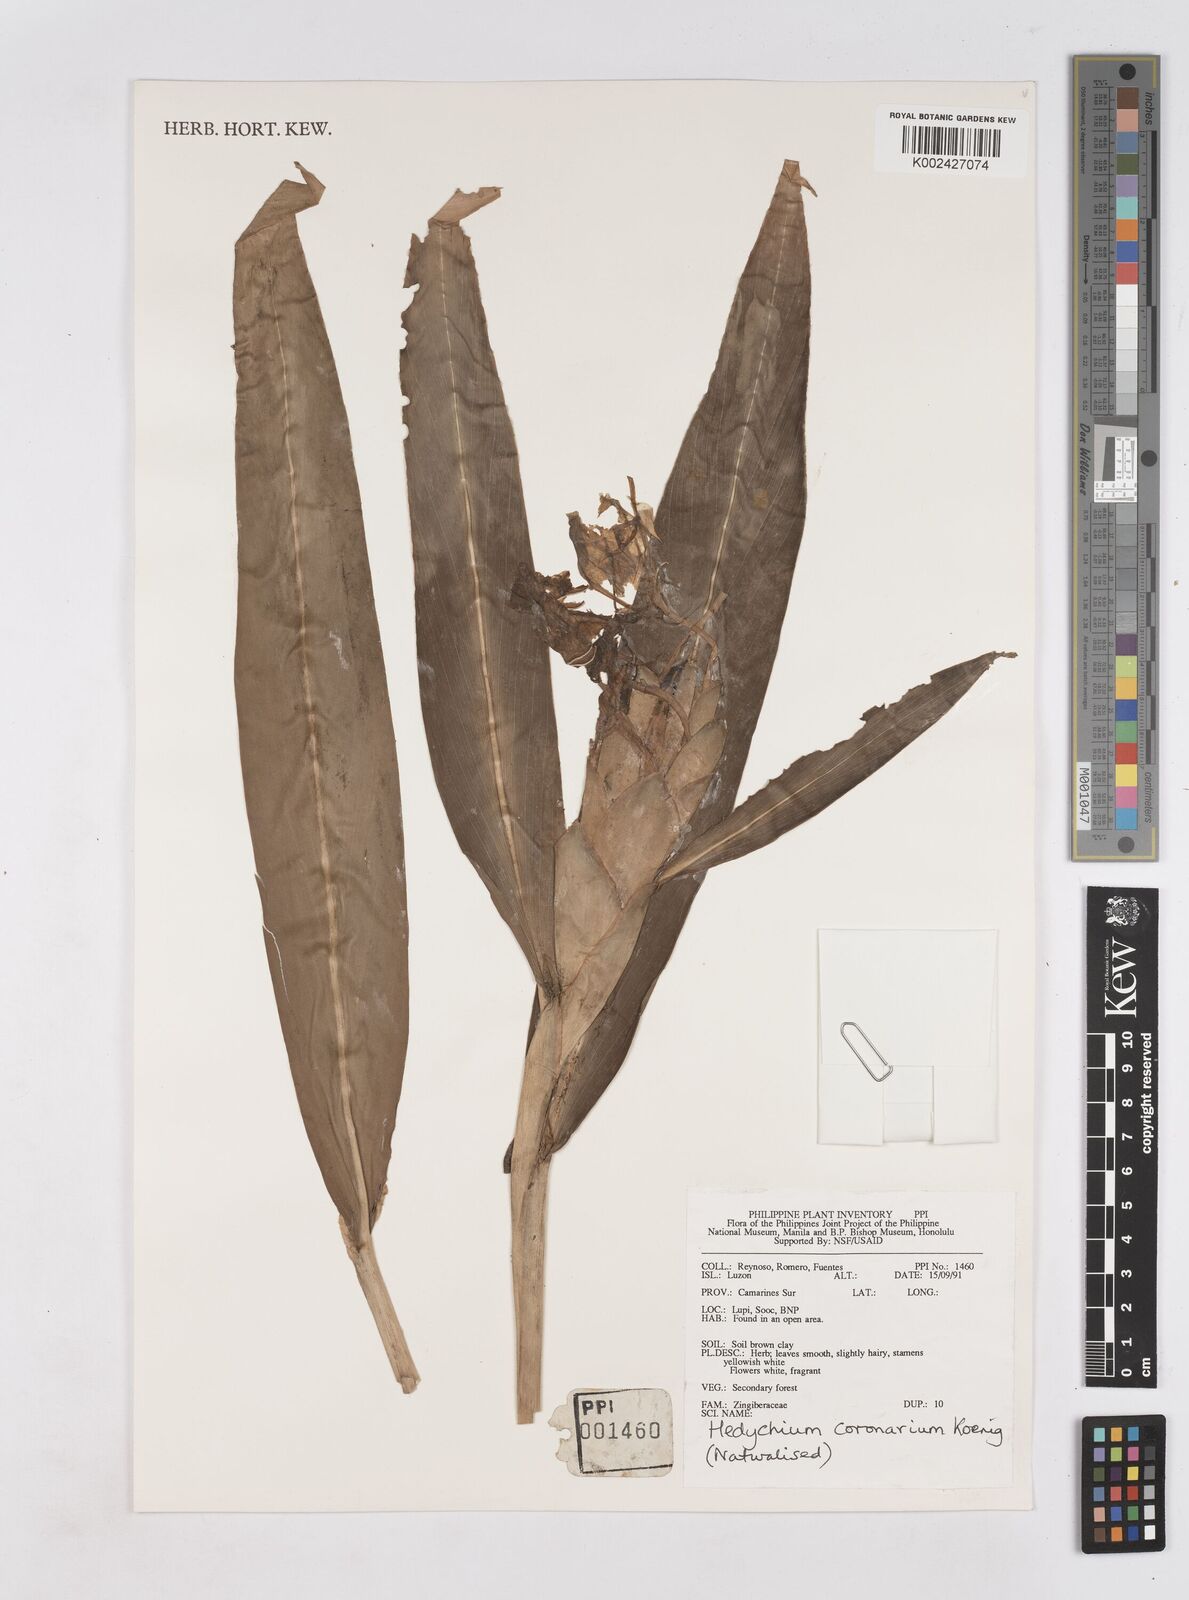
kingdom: Plantae
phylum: Tracheophyta
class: Liliopsida
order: Zingiberales
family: Zingiberaceae
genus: Hedychium
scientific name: Hedychium coronarium
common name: White garland-lily
